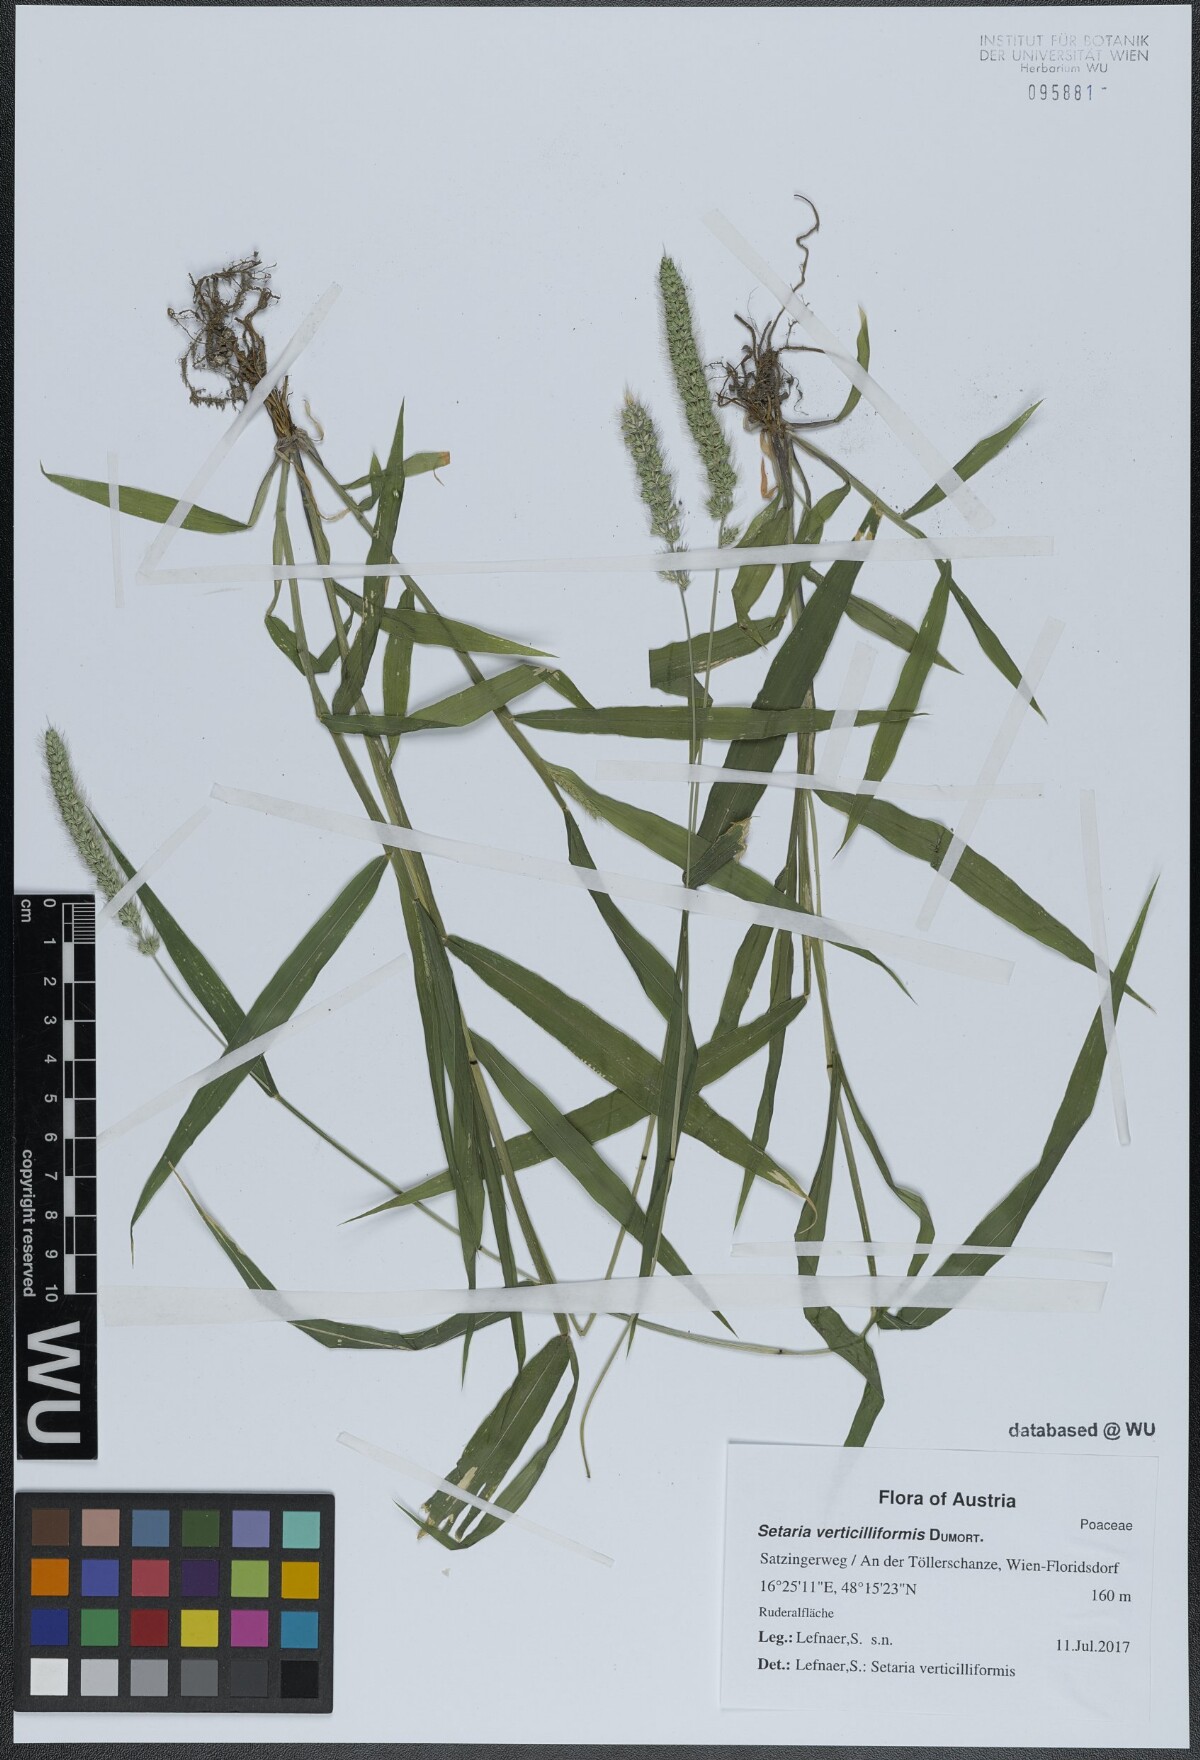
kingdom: Plantae
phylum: Tracheophyta
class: Liliopsida
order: Poales
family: Poaceae
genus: Setaria
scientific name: Setaria verticillata
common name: Hooked bristlegrass
